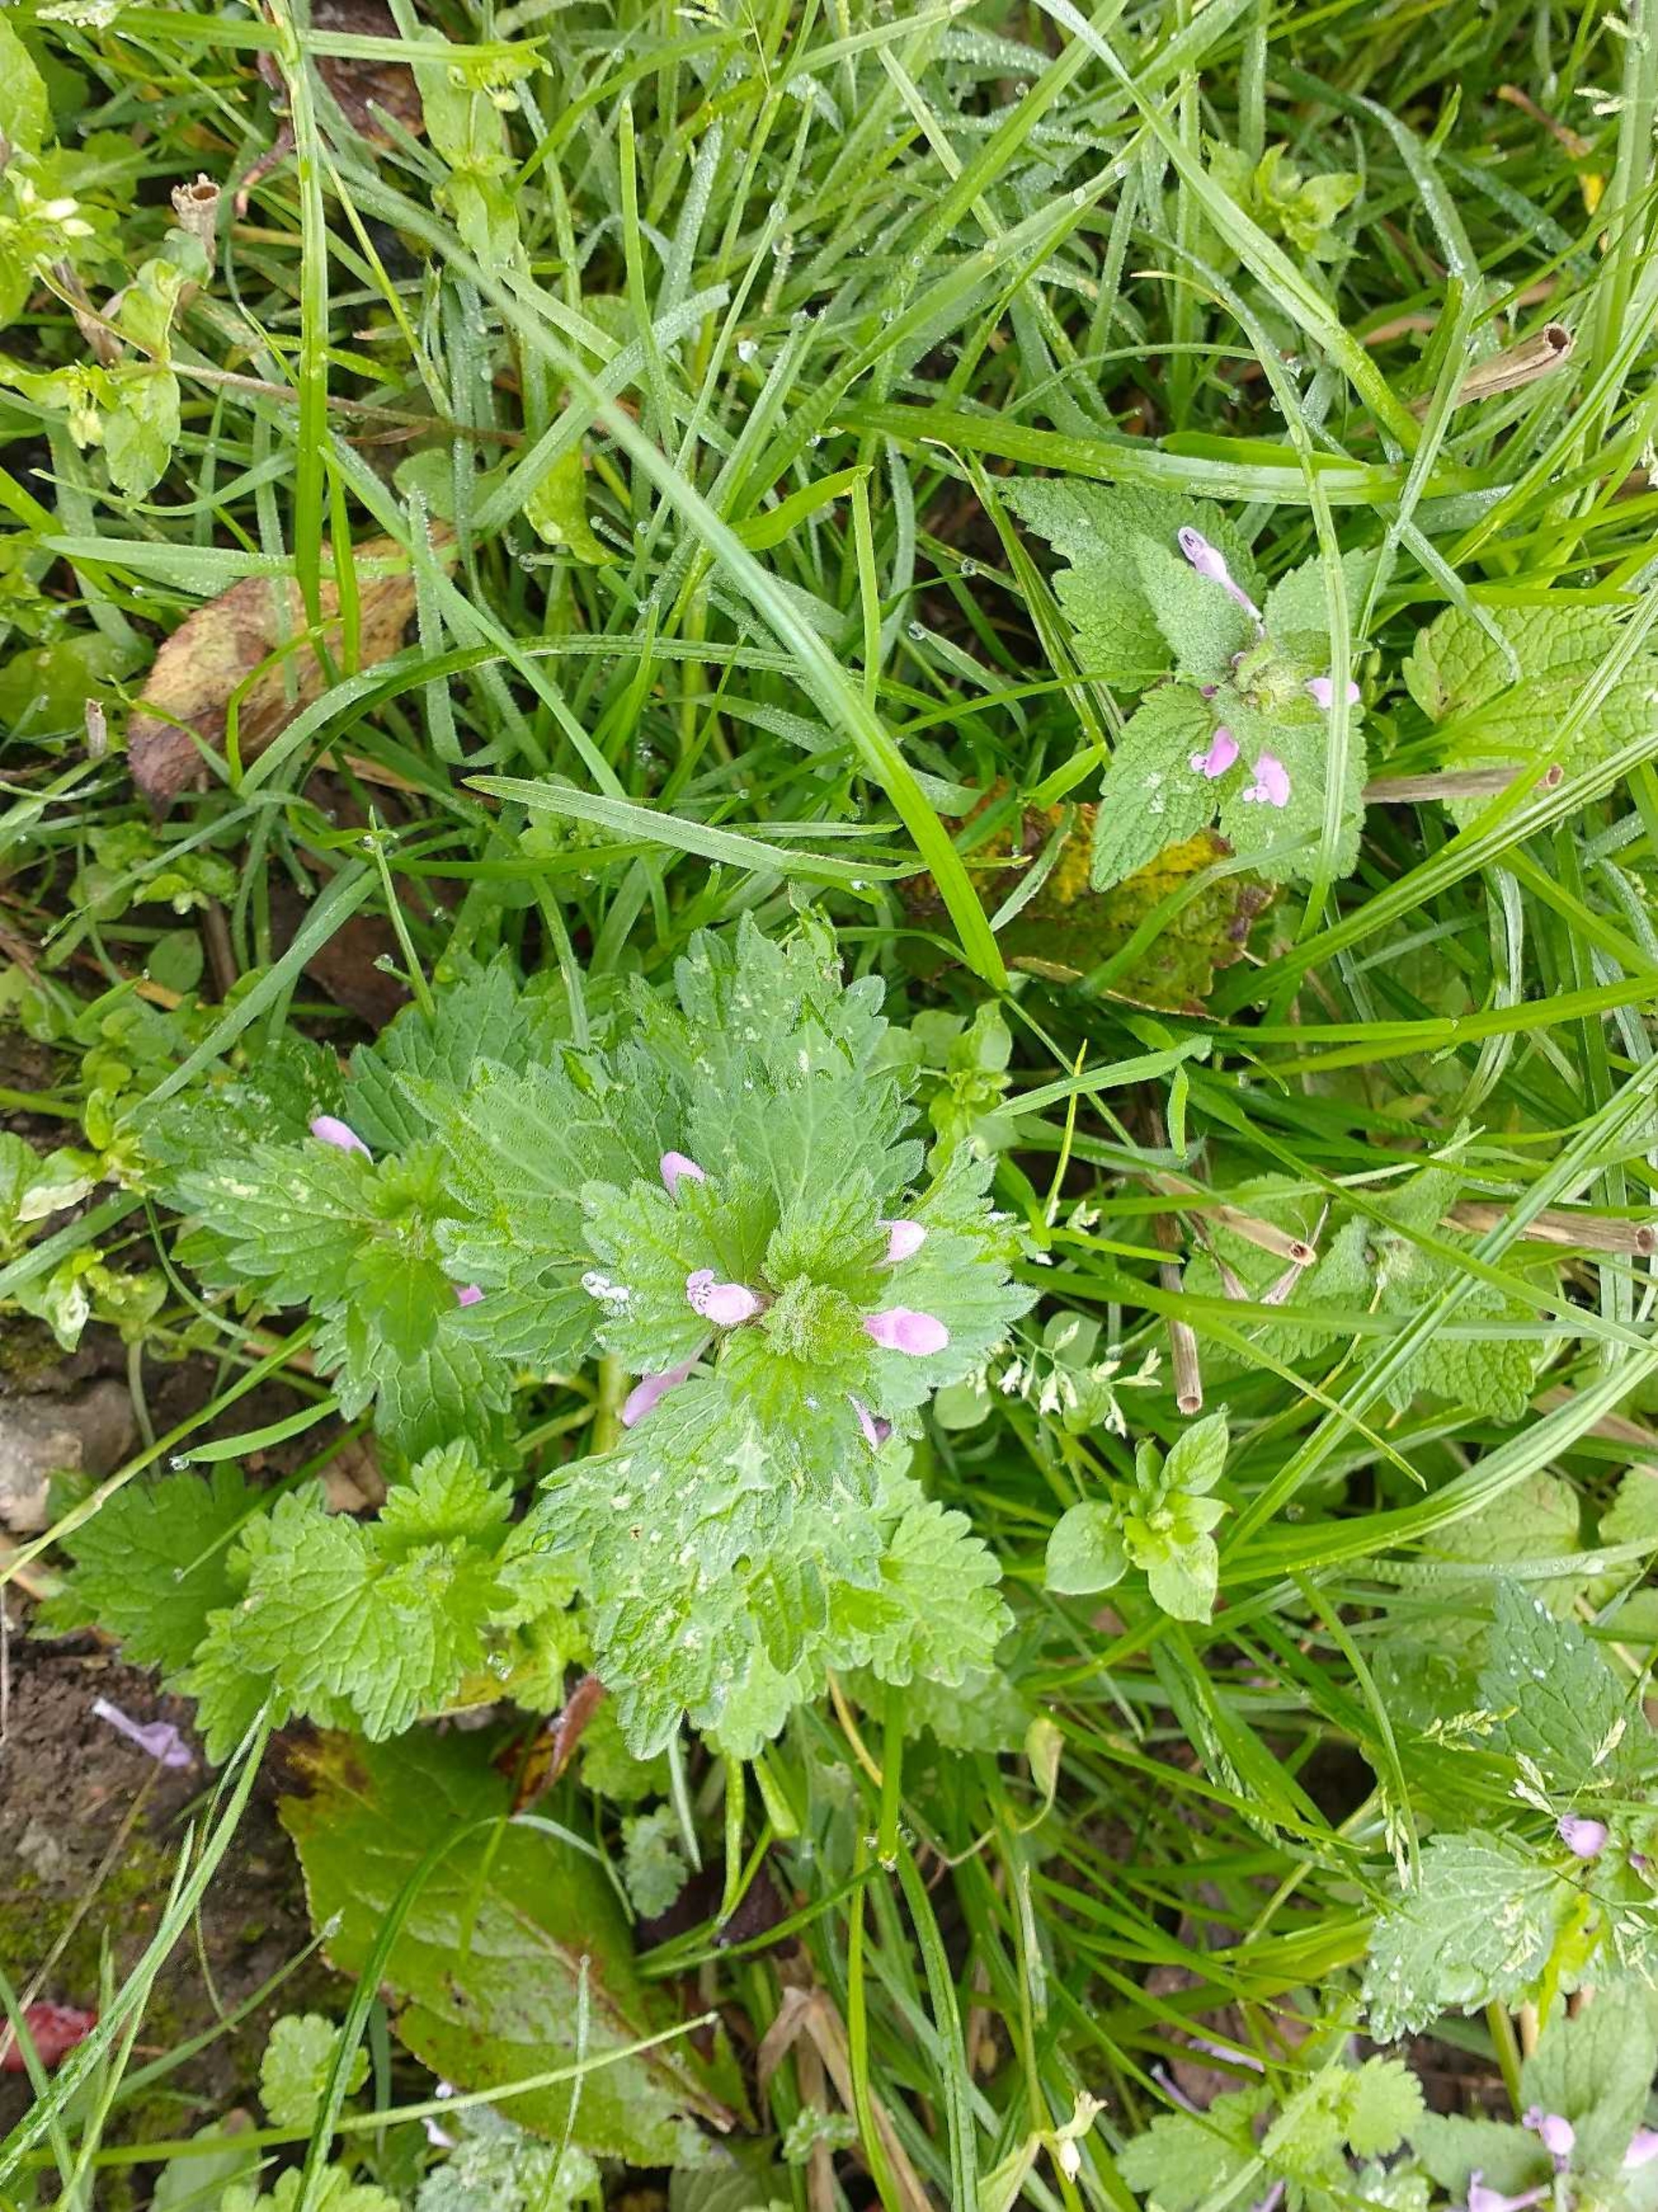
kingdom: Plantae
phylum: Tracheophyta
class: Magnoliopsida
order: Lamiales
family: Lamiaceae
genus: Lamium
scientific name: Lamium hybridum
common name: Fliget tvetand
